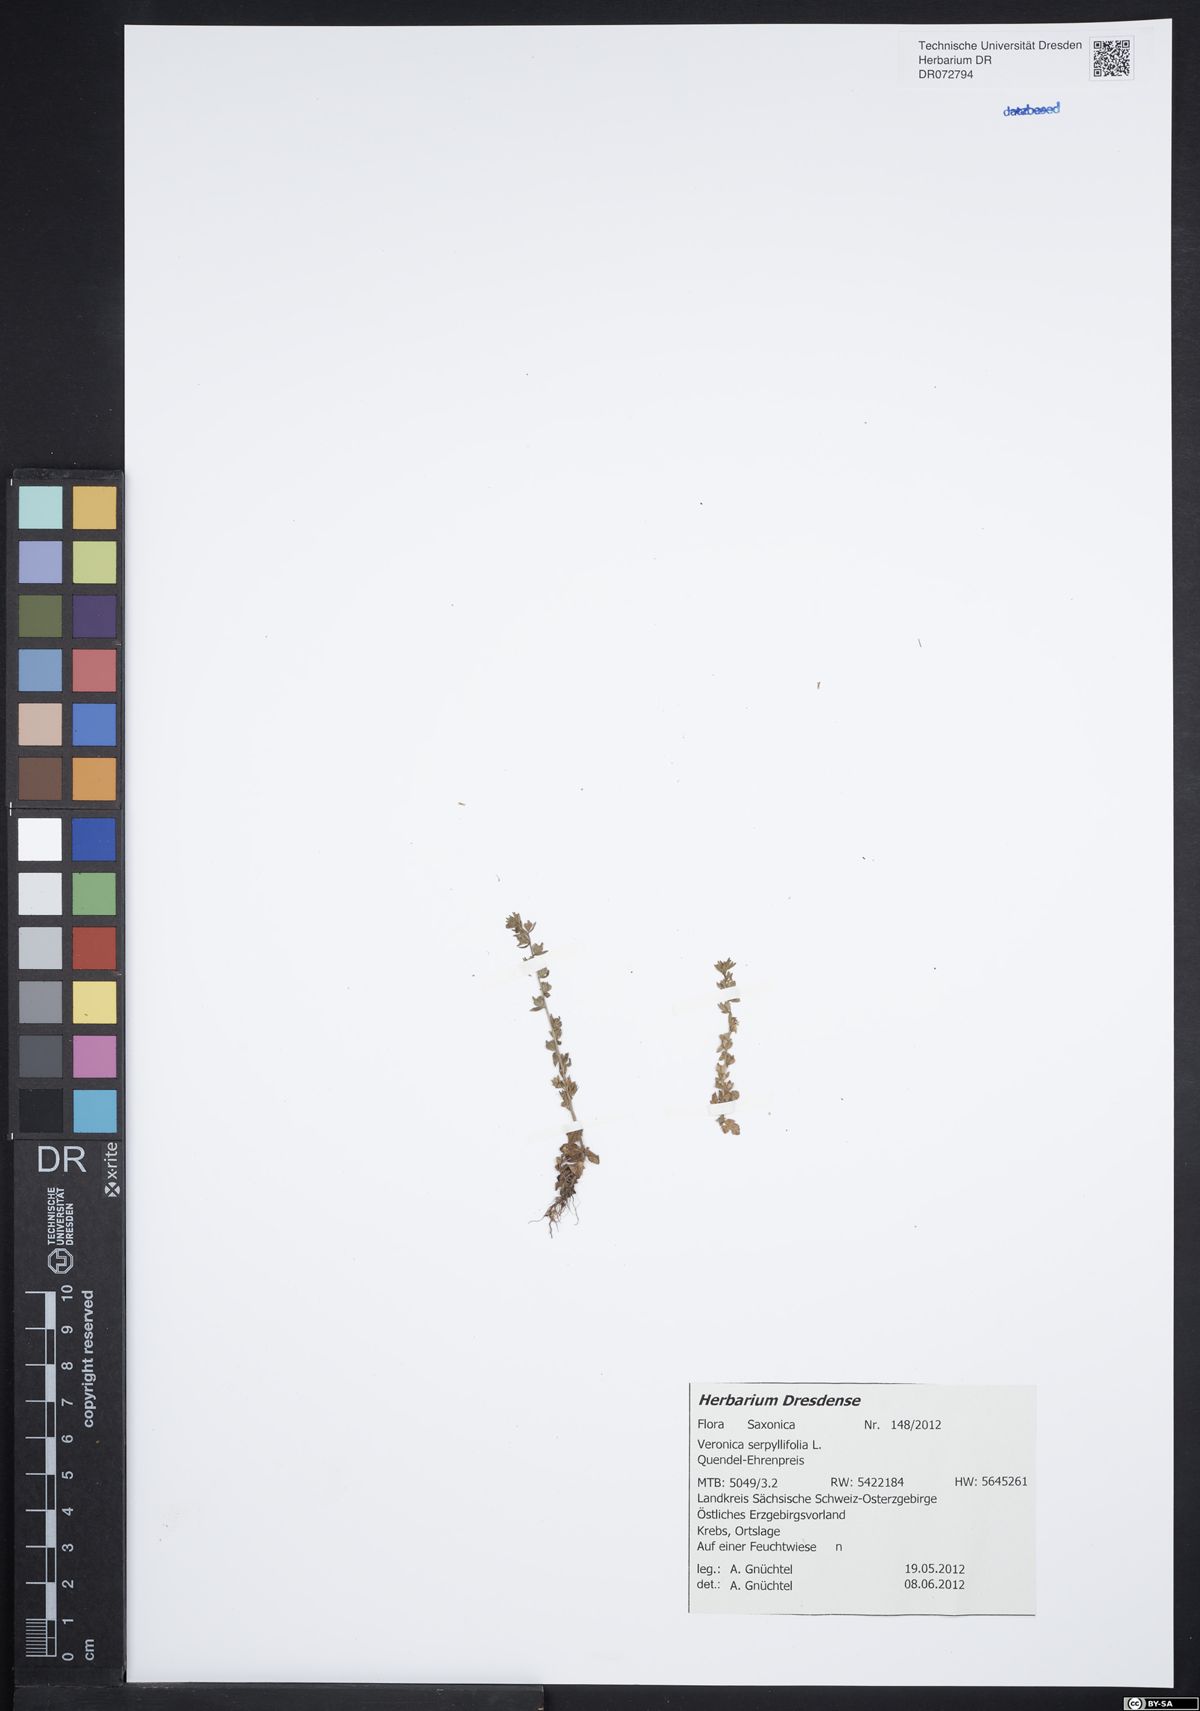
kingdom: Plantae
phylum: Tracheophyta
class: Magnoliopsida
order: Lamiales
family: Plantaginaceae
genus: Veronica
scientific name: Veronica serpyllifolia
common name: Thyme-leaved speedwell
